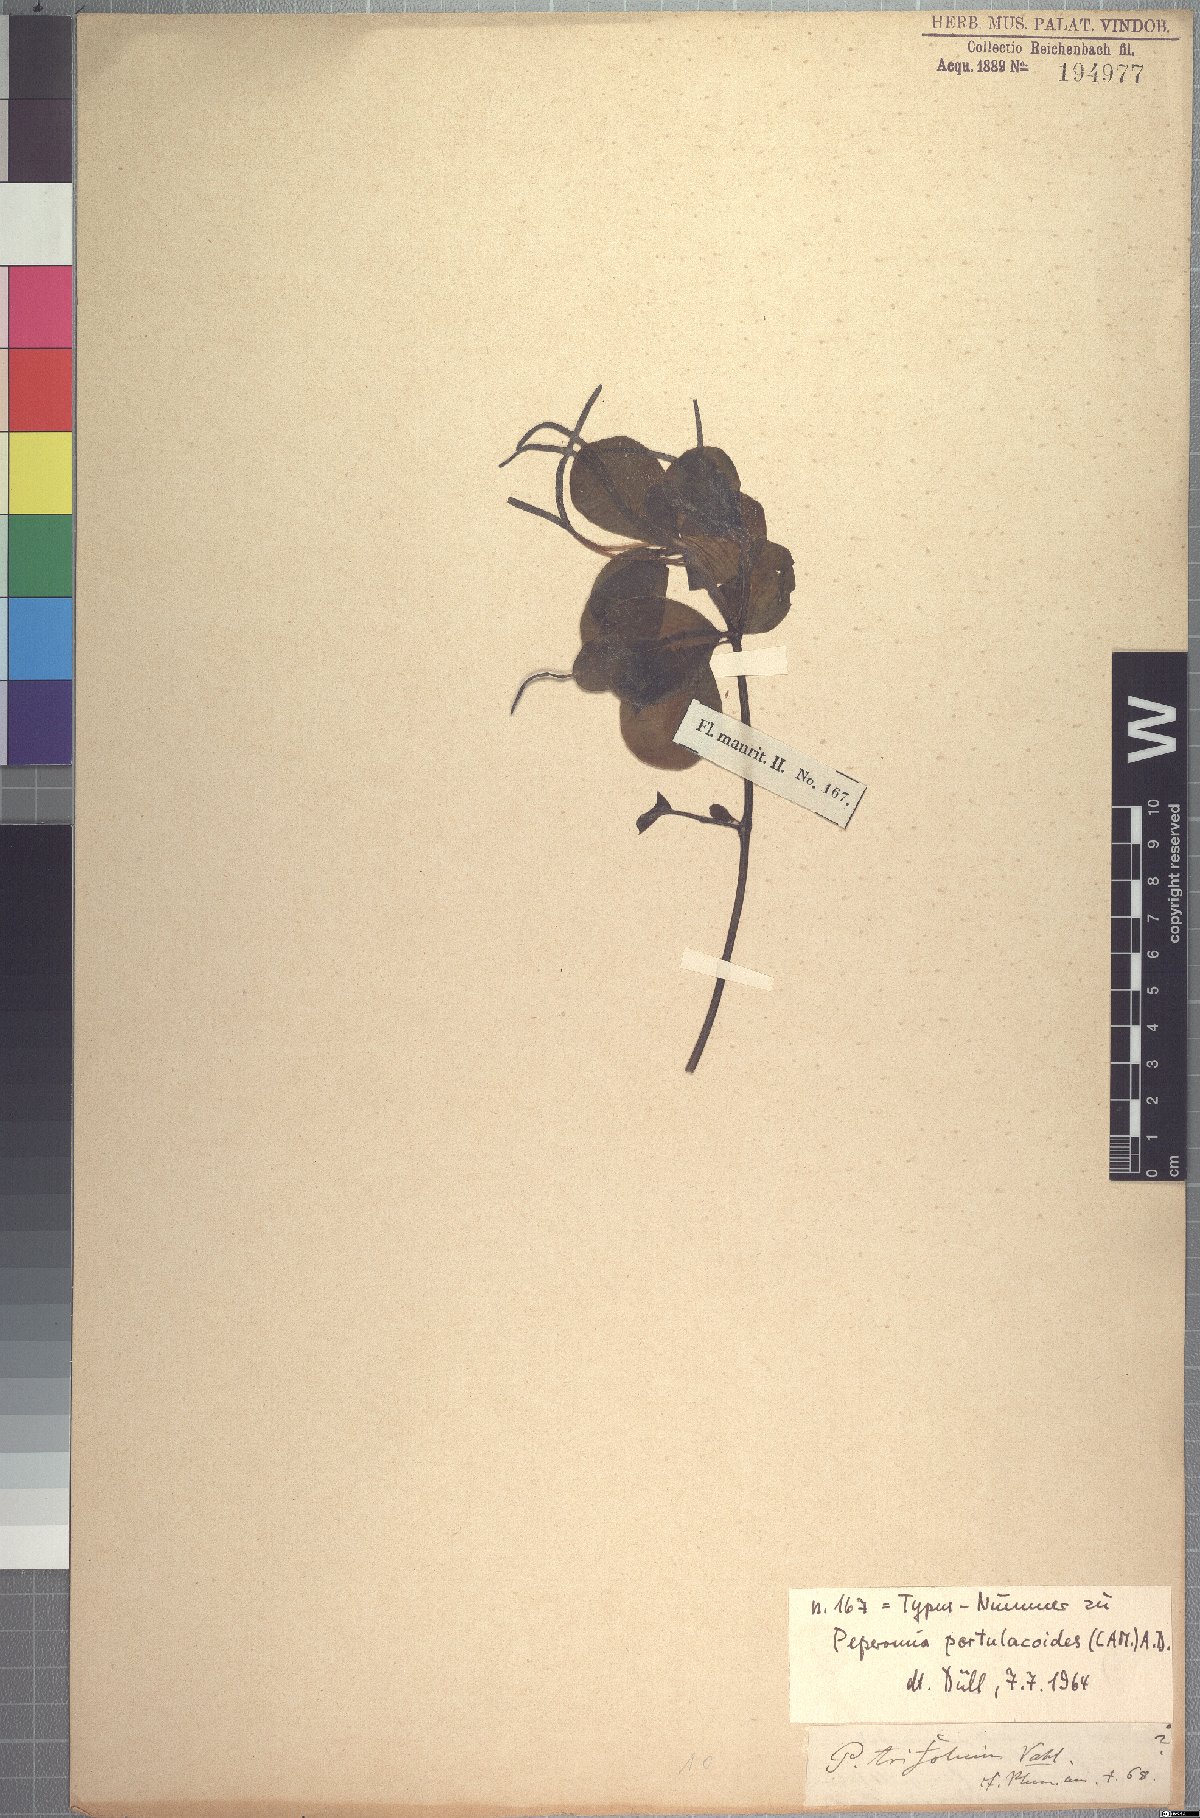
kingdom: Plantae
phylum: Tracheophyta
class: Magnoliopsida
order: Piperales
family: Piperaceae
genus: Peperomia
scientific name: Peperomia portulacoides
